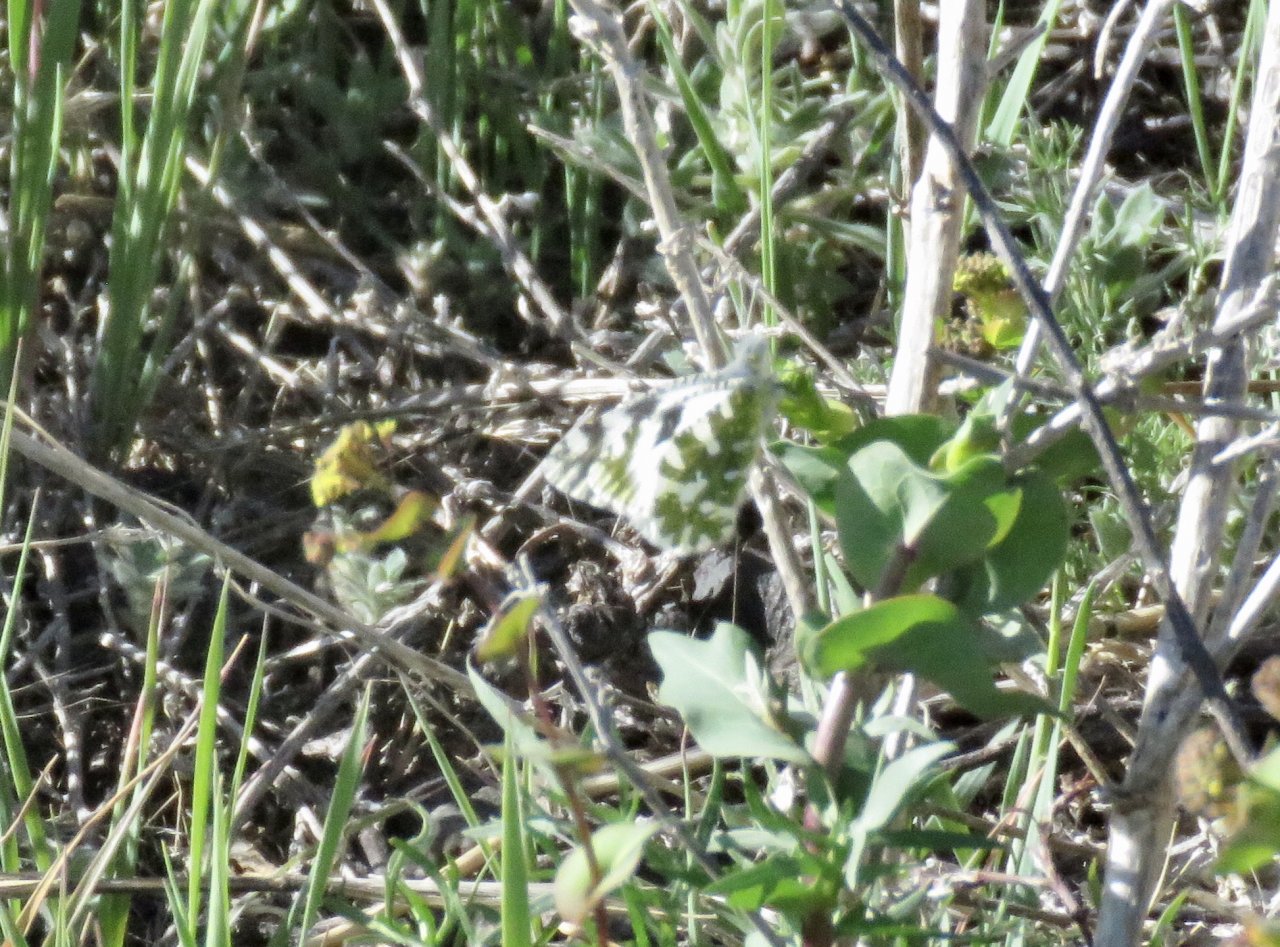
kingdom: Animalia
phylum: Arthropoda
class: Insecta
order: Lepidoptera
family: Pieridae
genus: Euchloe
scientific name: Euchloe lotta
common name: Desert Marble
